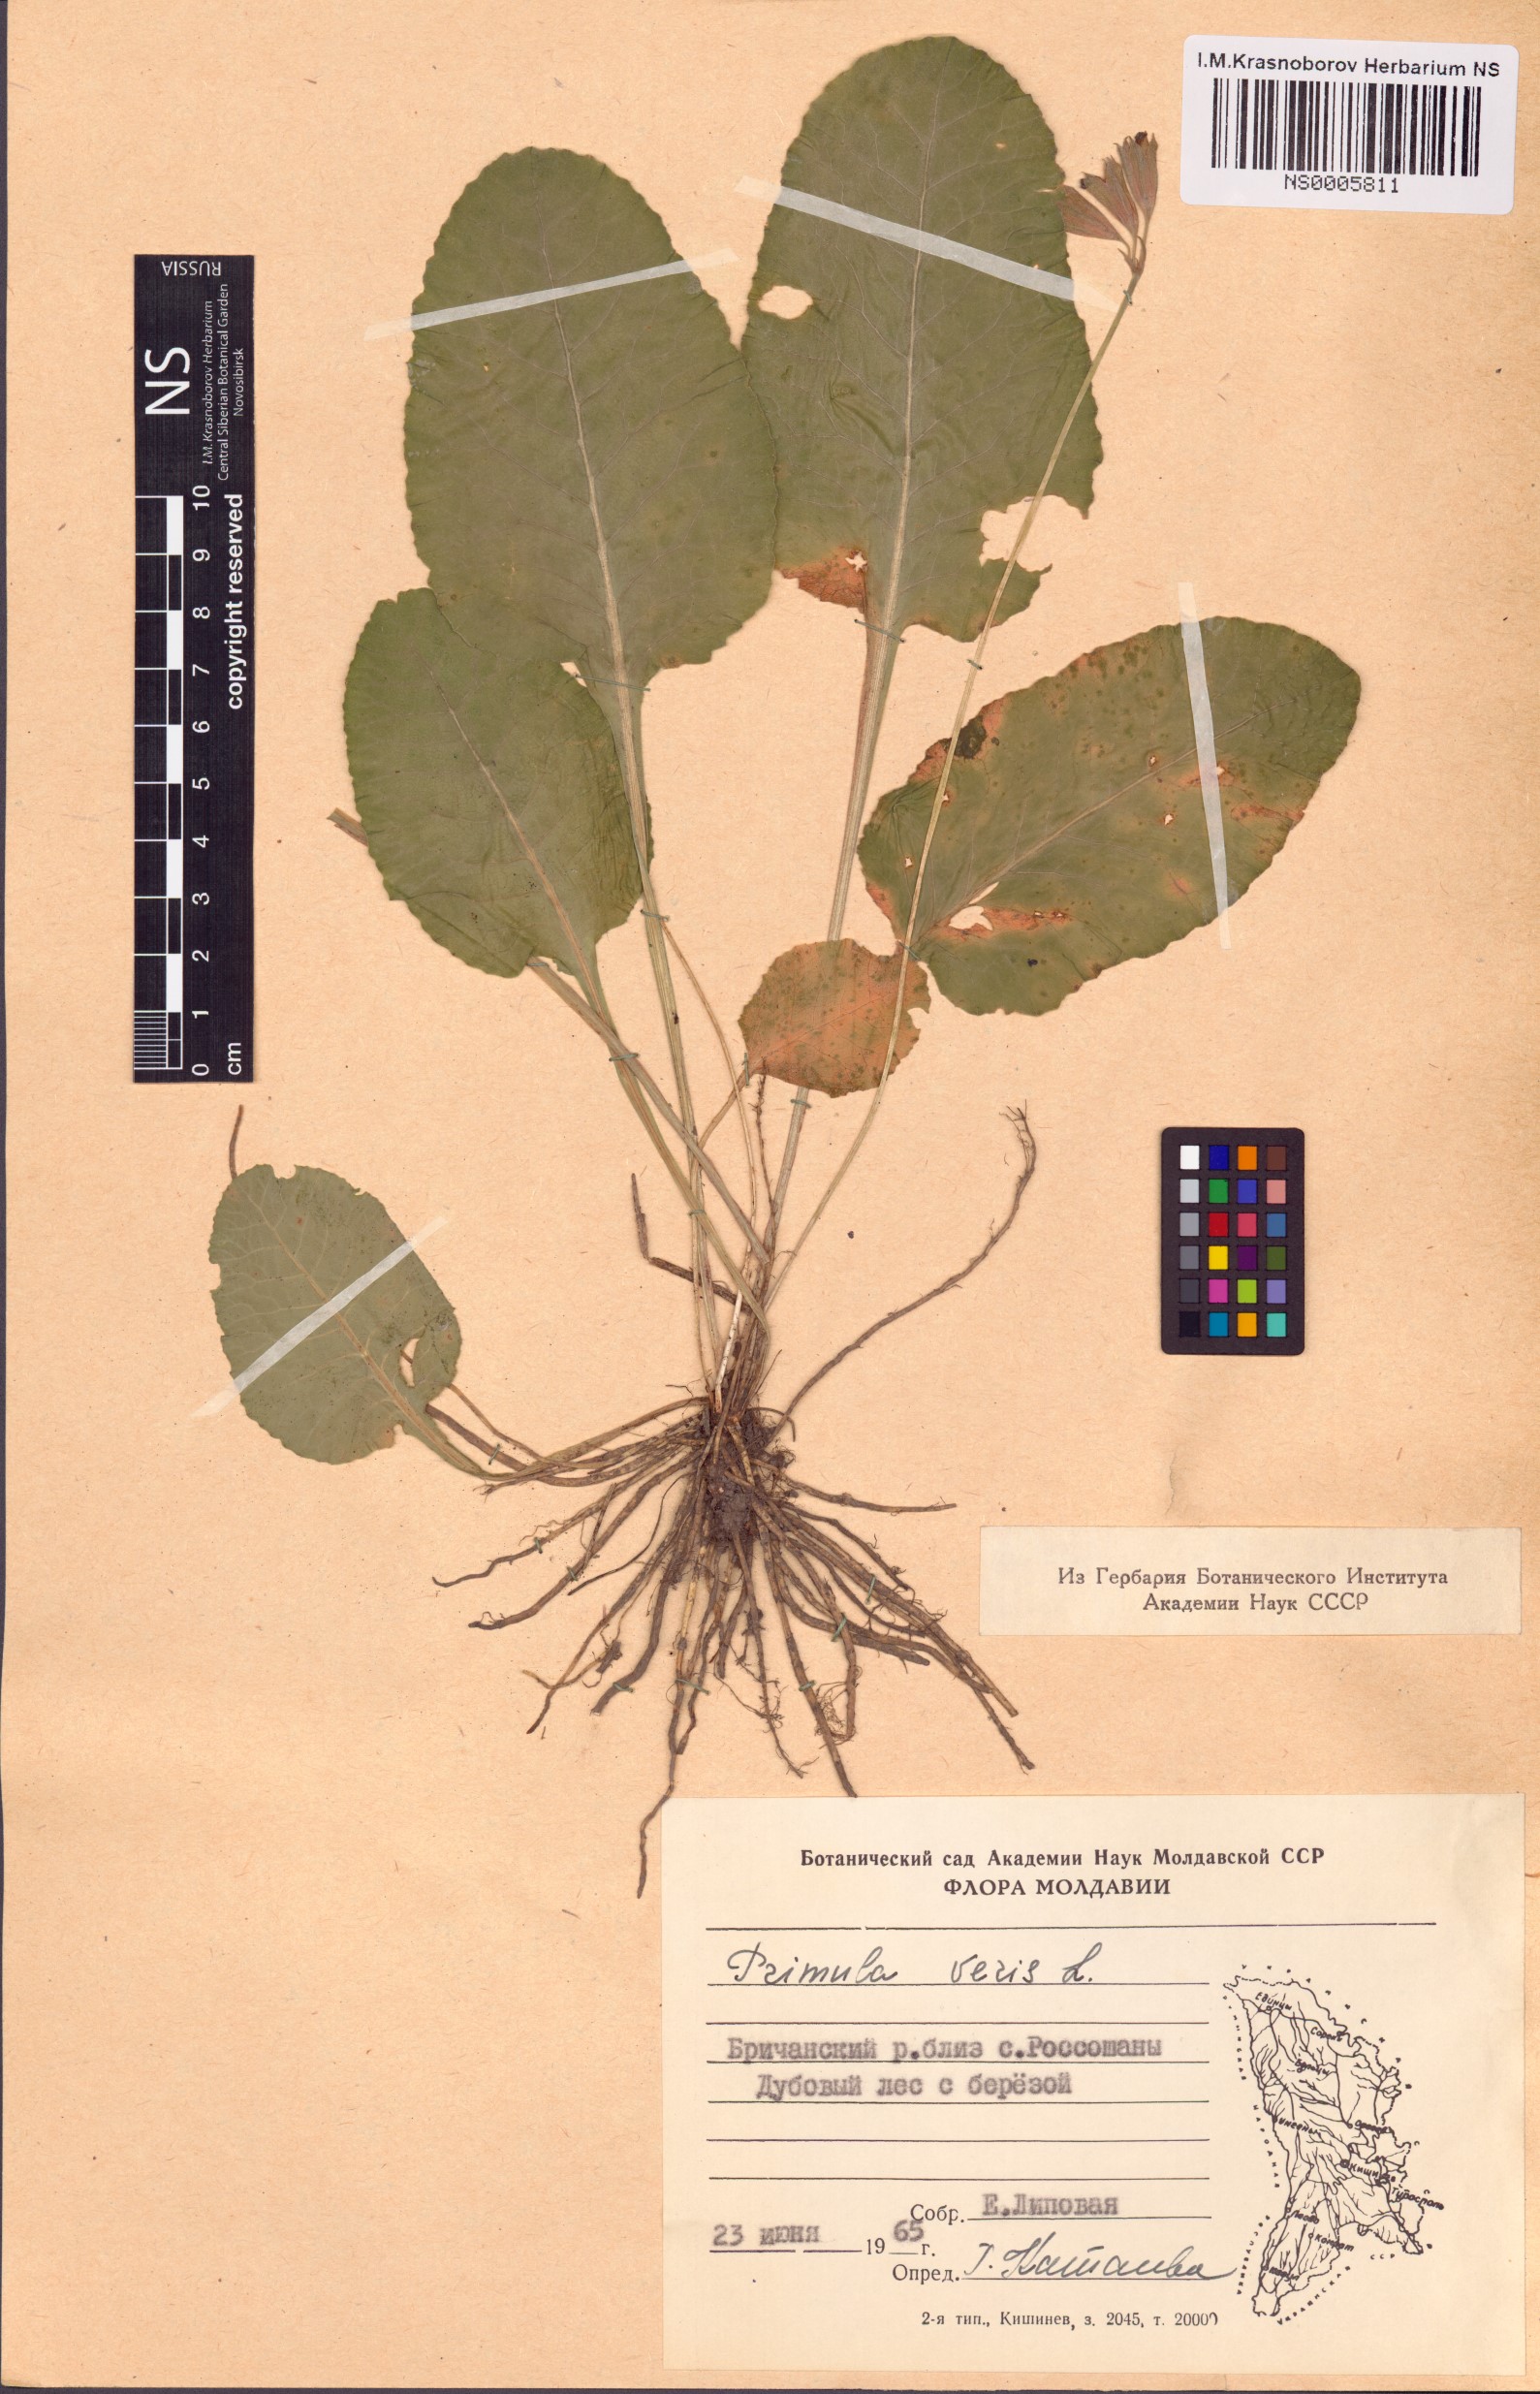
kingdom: Plantae
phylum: Tracheophyta
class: Magnoliopsida
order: Ericales
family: Primulaceae
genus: Primula
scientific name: Primula veris
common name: Cowslip
